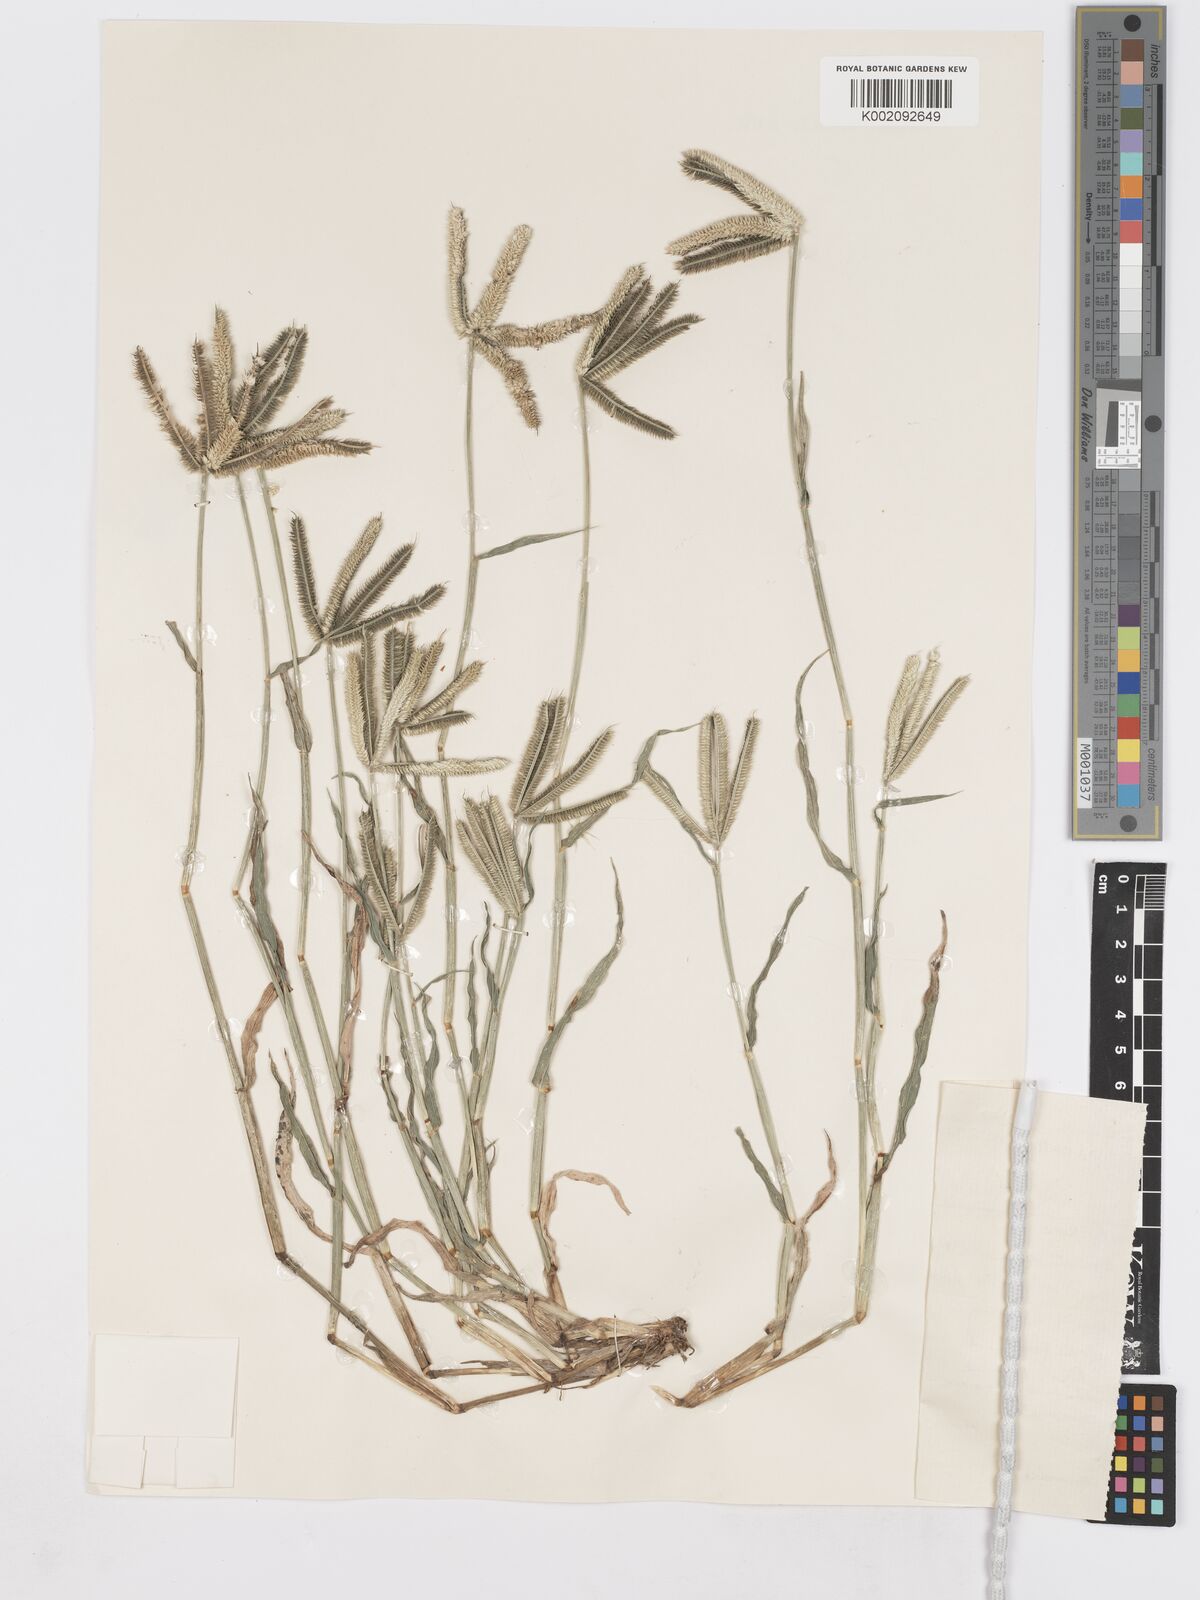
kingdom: Plantae
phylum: Tracheophyta
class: Liliopsida
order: Poales
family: Poaceae
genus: Dactyloctenium
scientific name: Dactyloctenium giganteum
